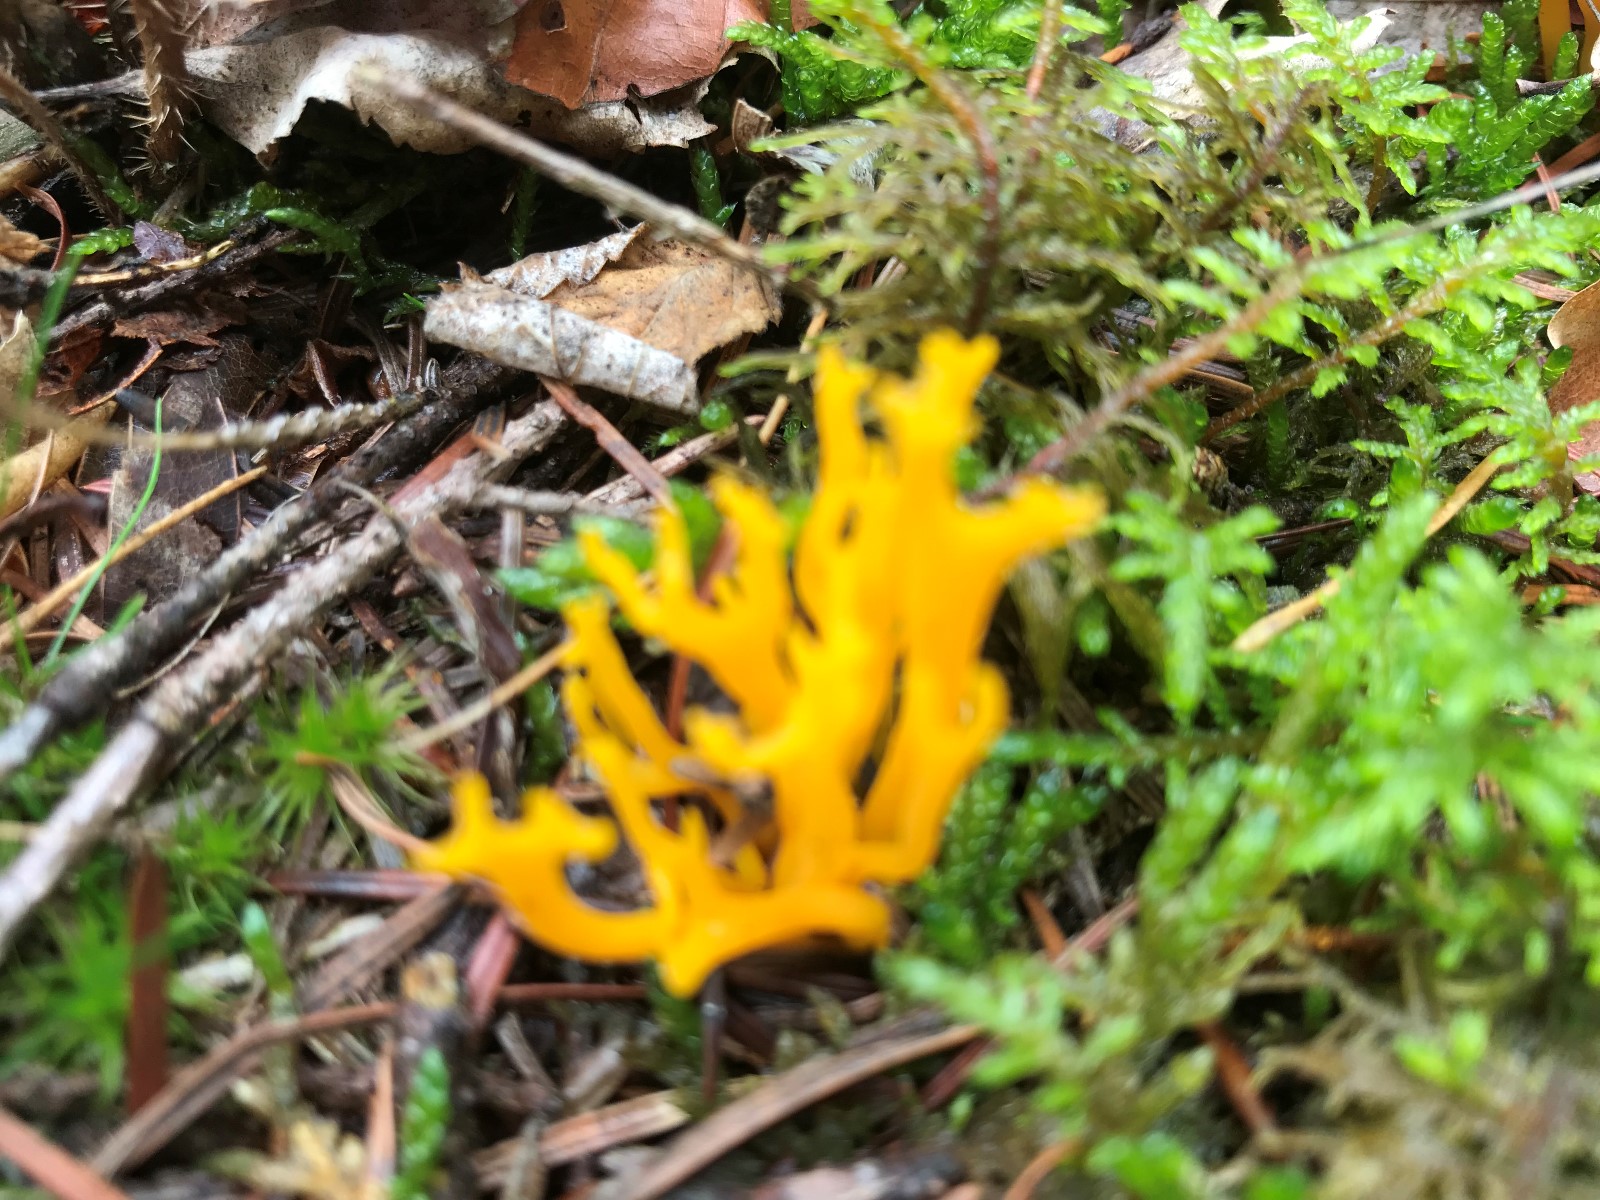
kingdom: Fungi
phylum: Basidiomycota
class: Dacrymycetes
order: Dacrymycetales
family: Dacrymycetaceae
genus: Calocera
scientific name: Calocera viscosa
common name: almindelig guldgaffel
